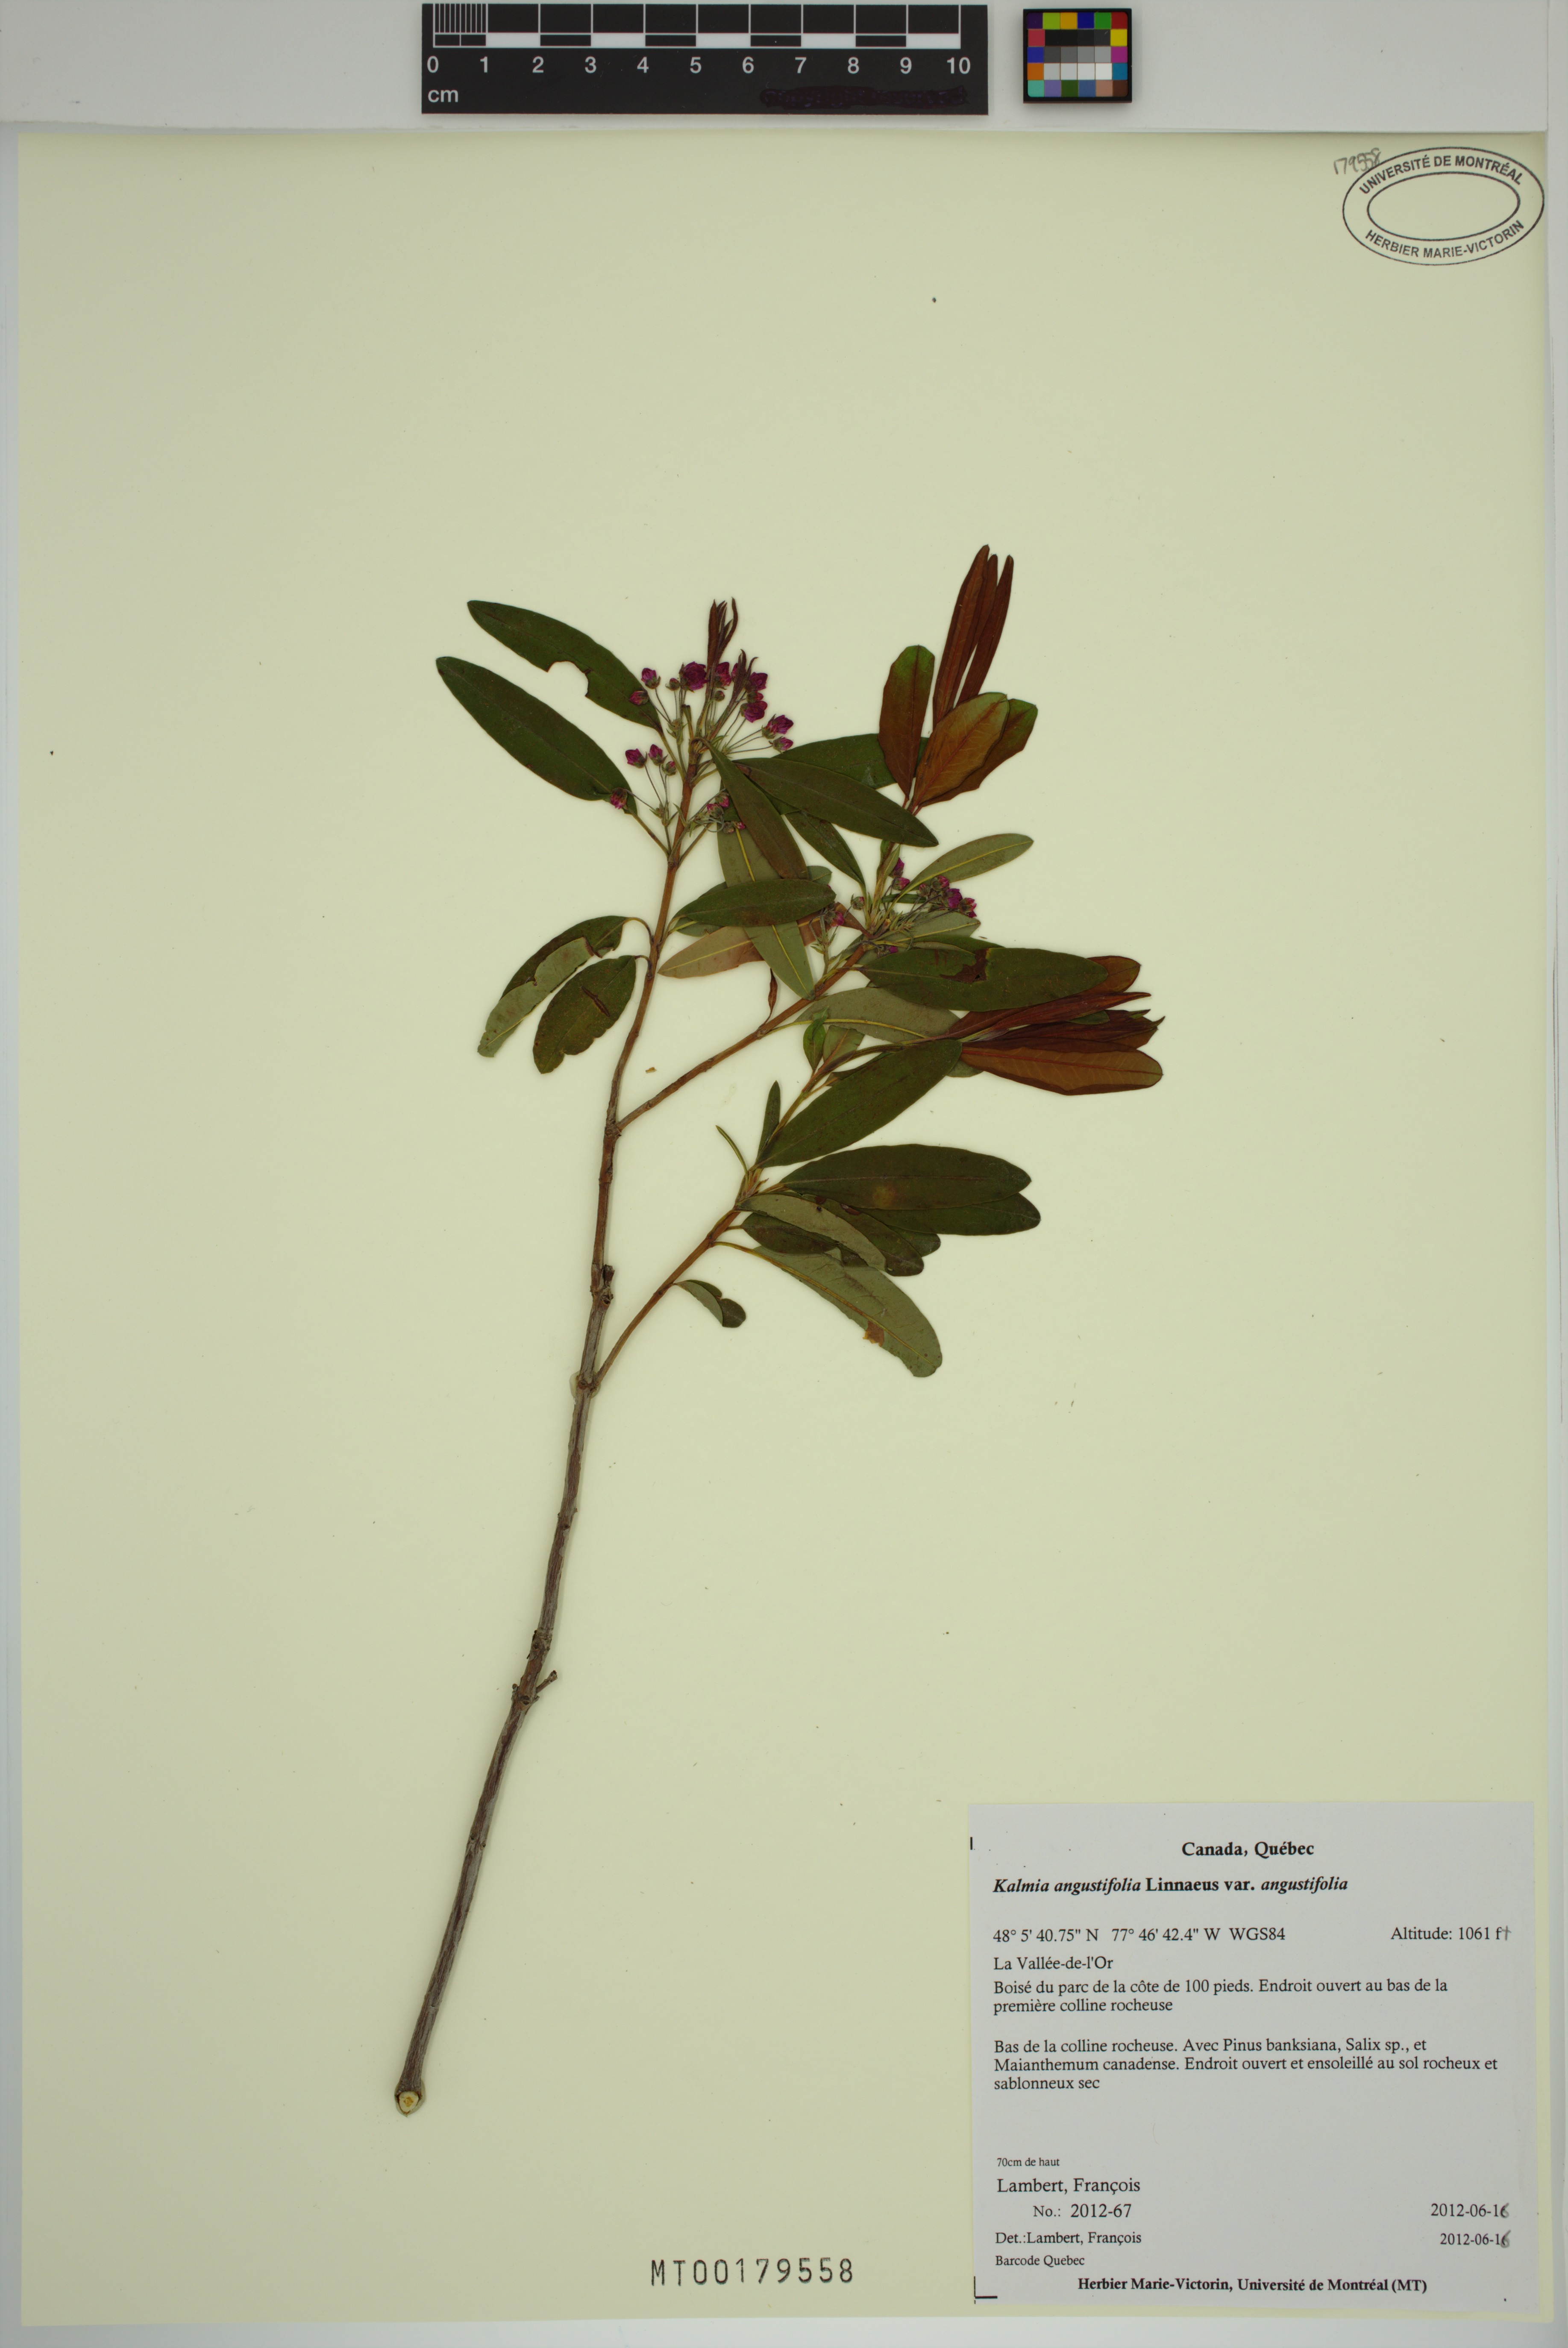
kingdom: Plantae
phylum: Tracheophyta
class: Magnoliopsida
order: Ericales
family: Ericaceae
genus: Kalmia
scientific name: Kalmia angustifolia
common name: Sheep-laurel
